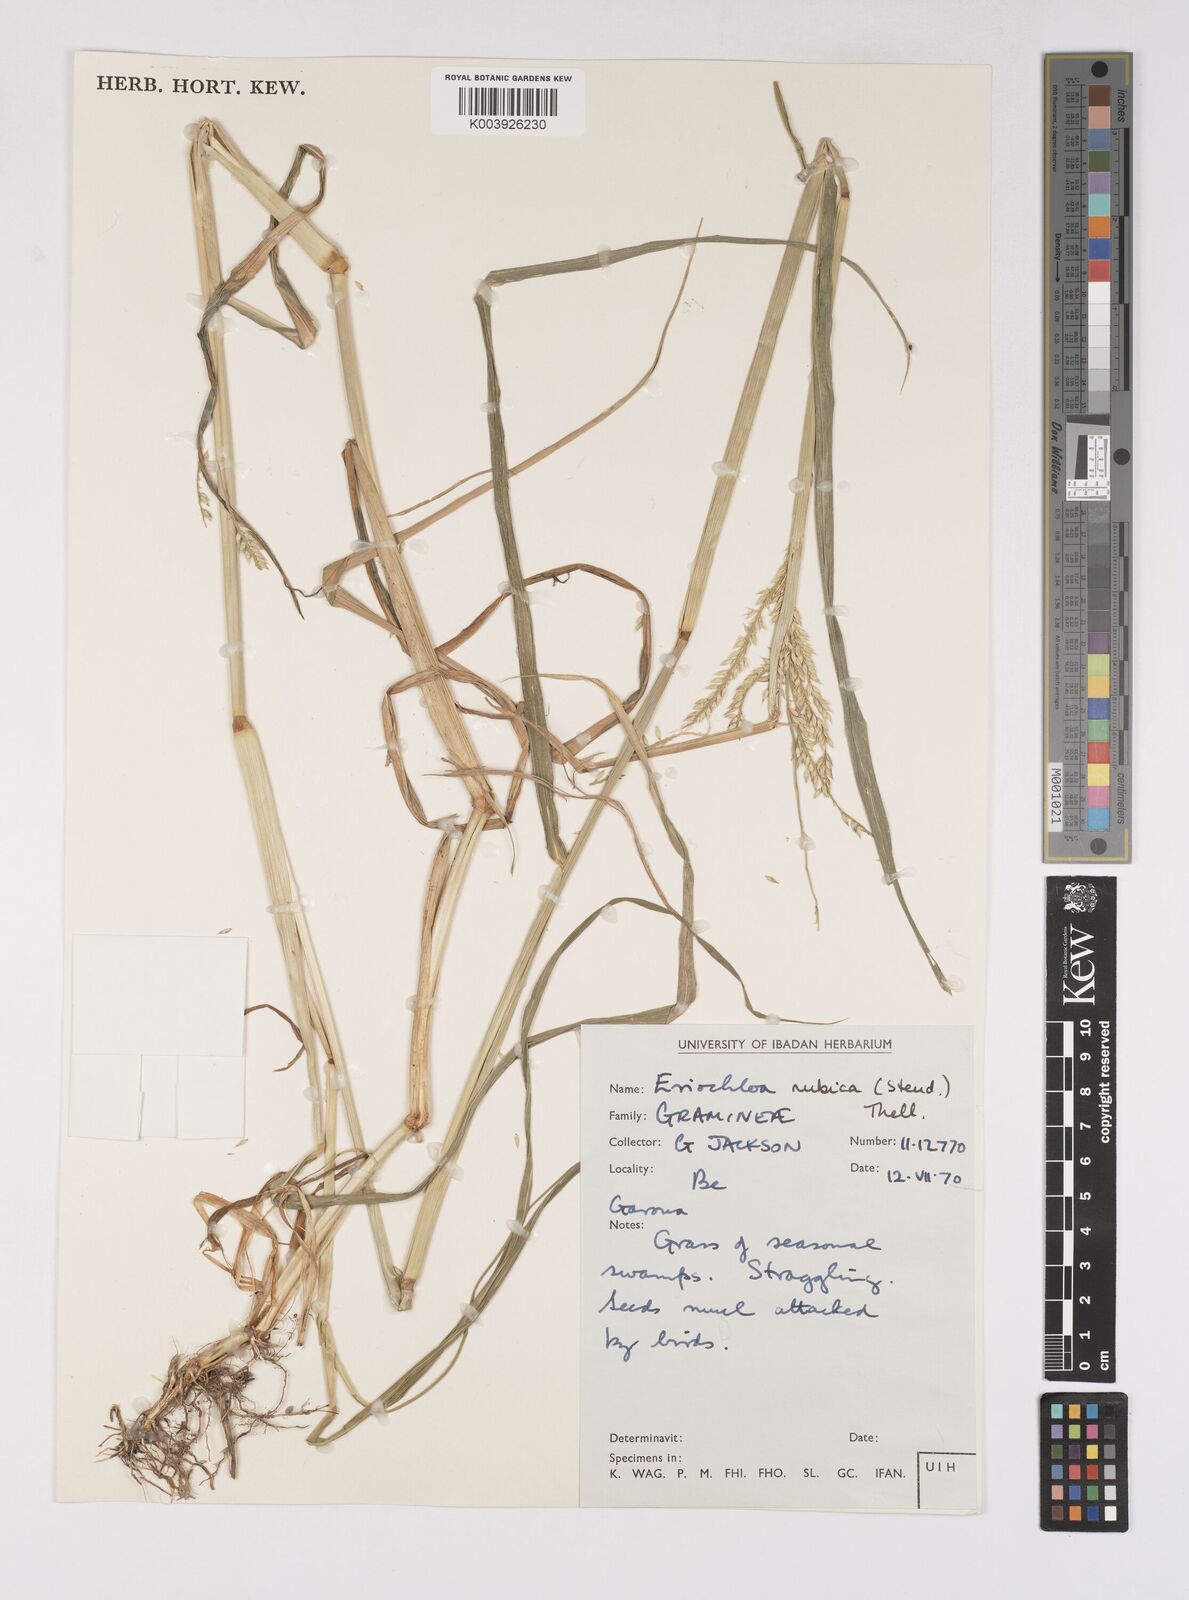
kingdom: Plantae
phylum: Tracheophyta
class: Liliopsida
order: Poales
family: Poaceae
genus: Eriochloa
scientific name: Eriochloa barbatus
